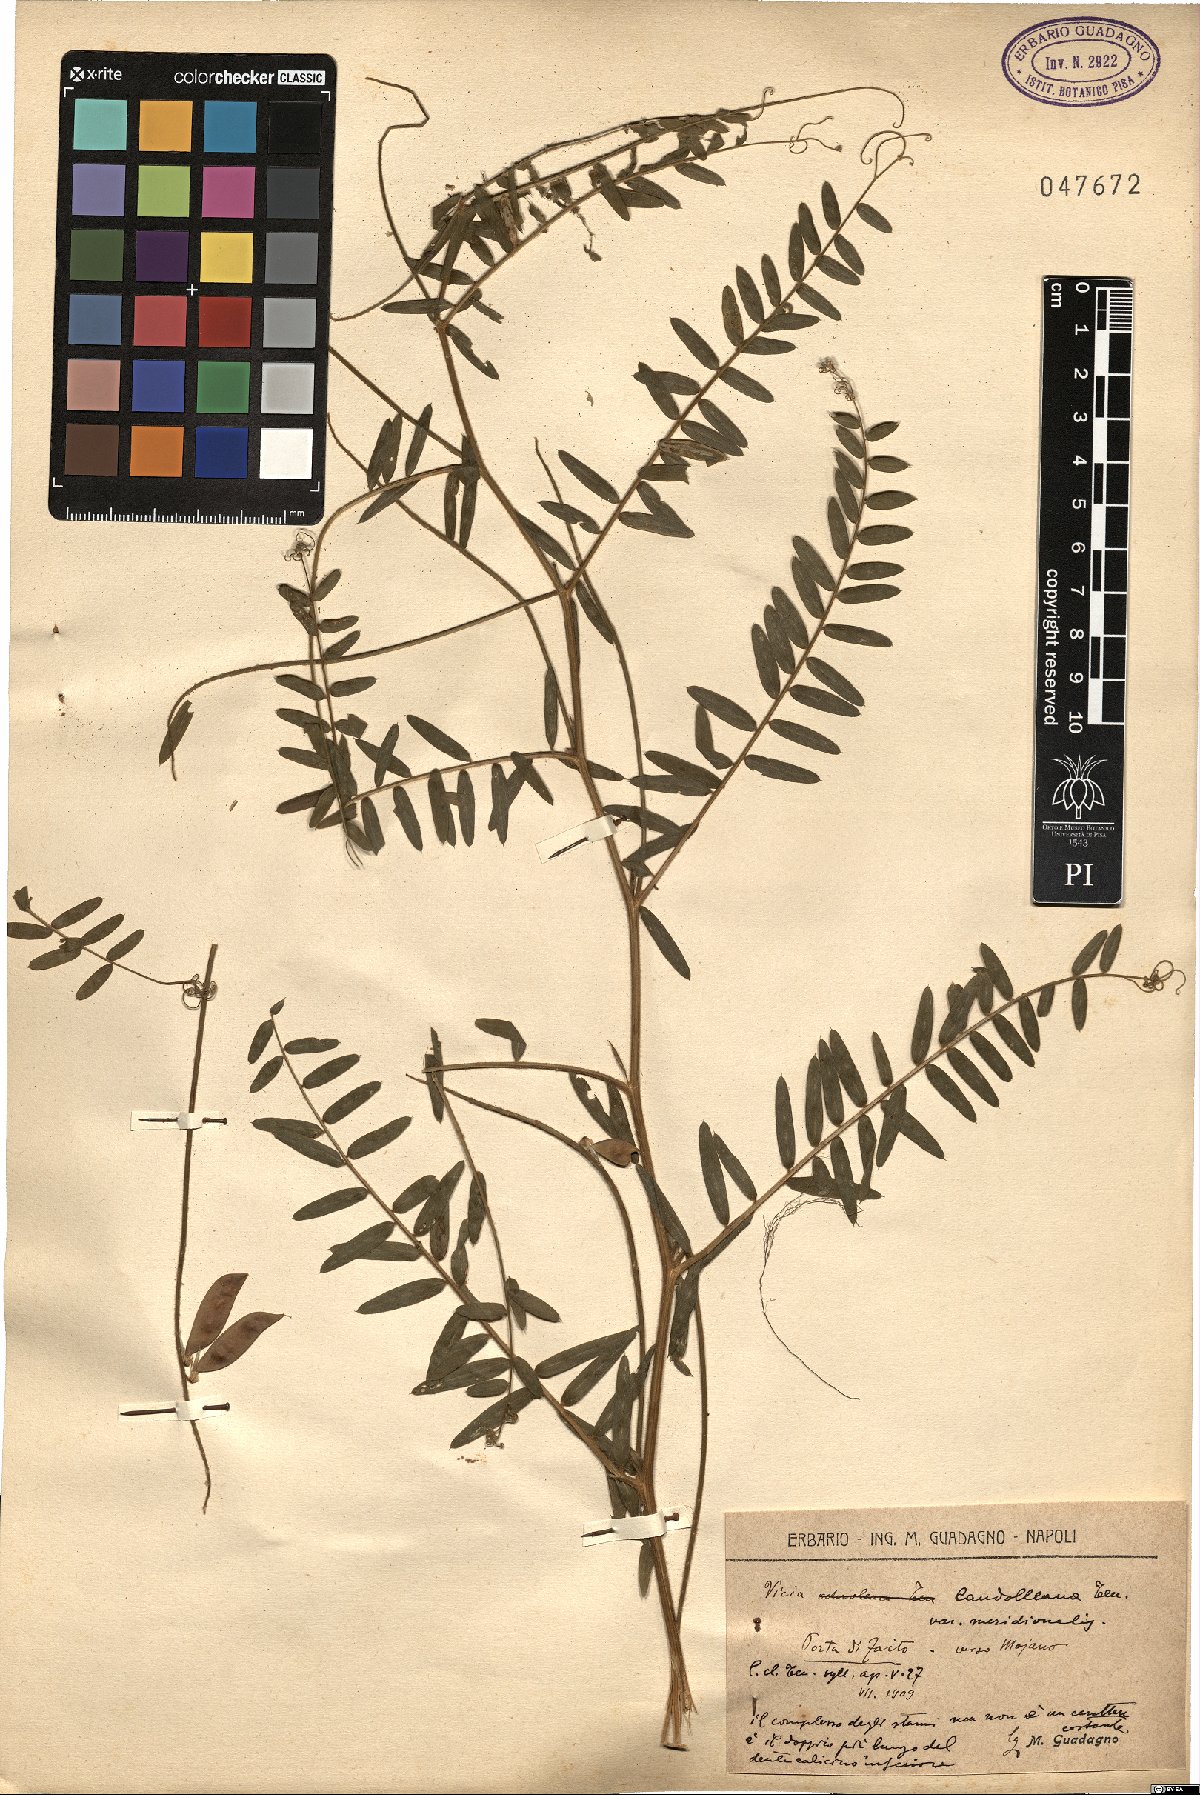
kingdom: Plantae
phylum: Tracheophyta
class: Magnoliopsida
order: Fabales
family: Fabaceae
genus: Vicia
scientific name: Vicia incana
